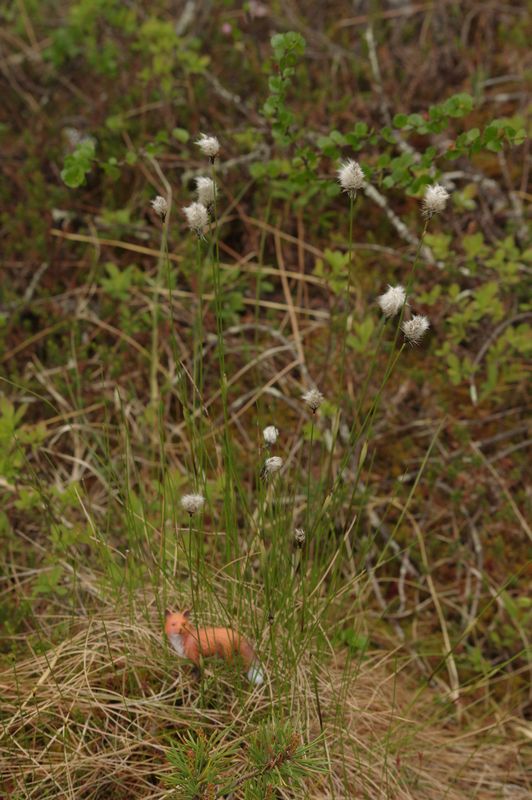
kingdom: Plantae
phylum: Tracheophyta
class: Liliopsida
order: Poales
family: Cyperaceae
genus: Eriophorum
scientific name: Eriophorum vaginatum
